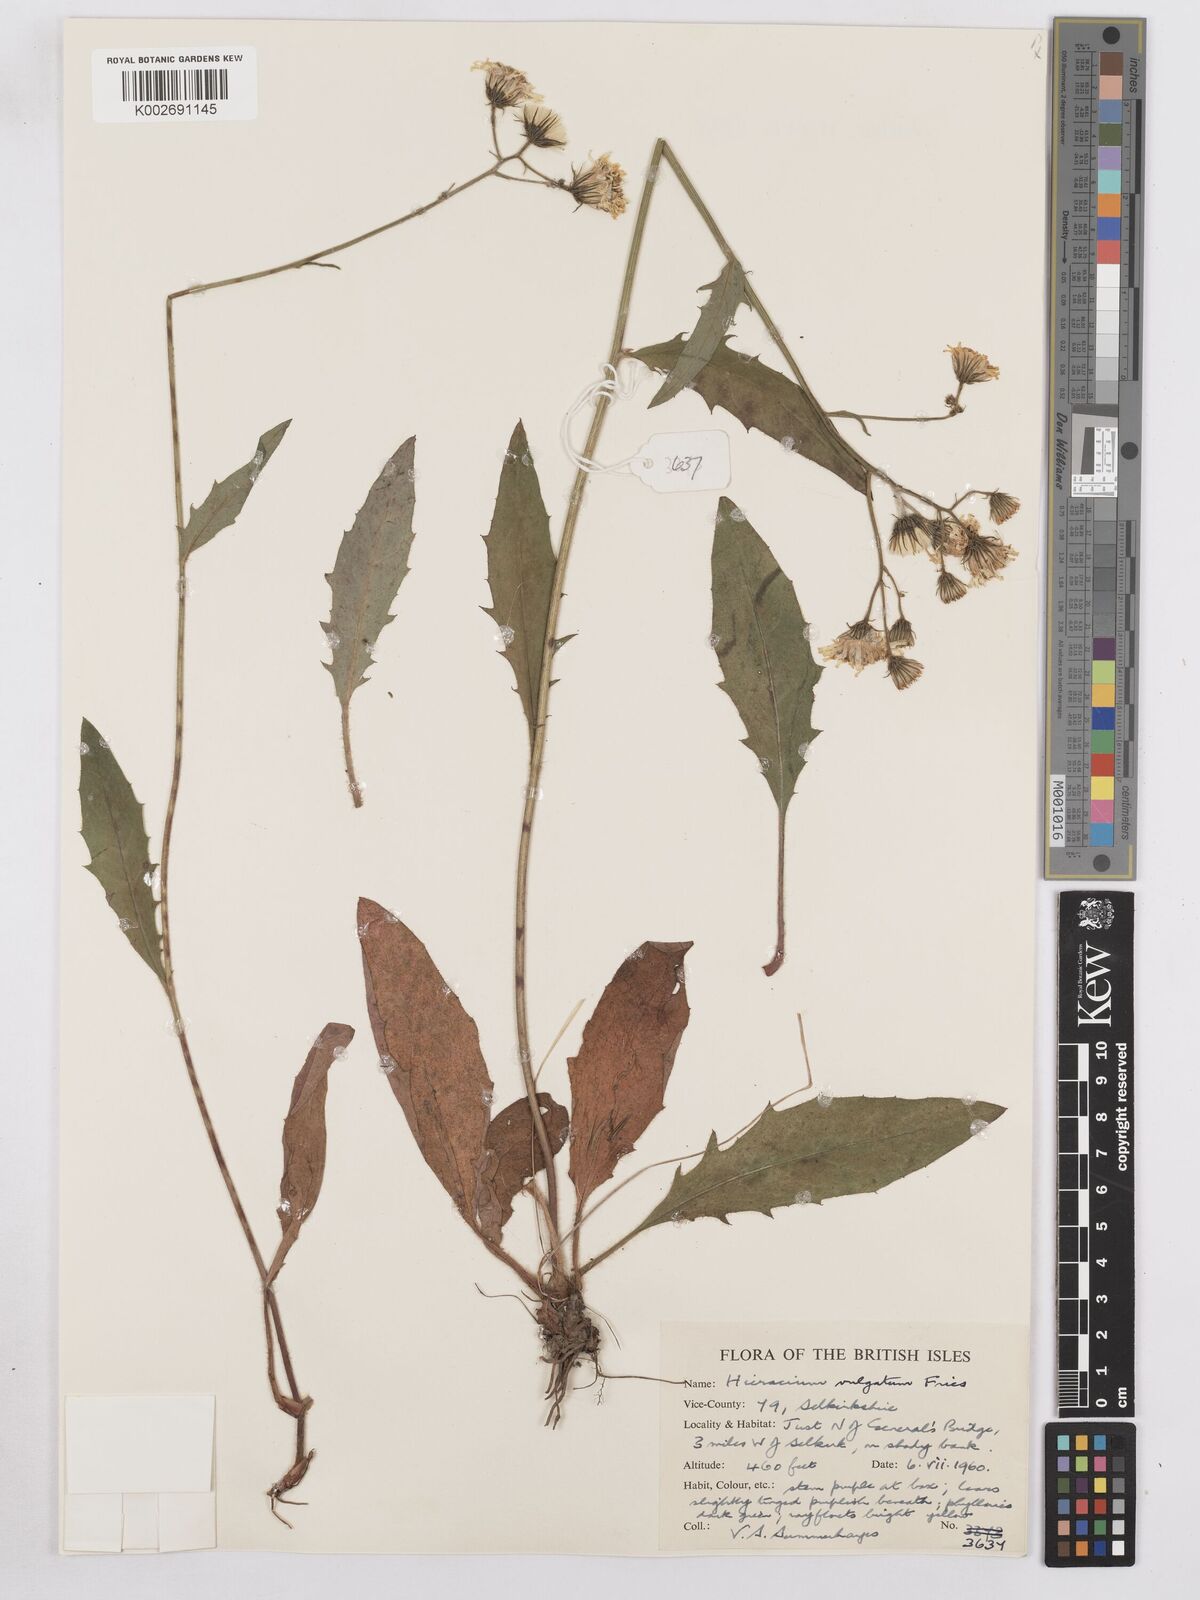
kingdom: Plantae
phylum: Tracheophyta
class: Magnoliopsida
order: Asterales
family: Asteraceae
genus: Hieracium
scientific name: Hieracium lachenalii
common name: Common hawkweed
